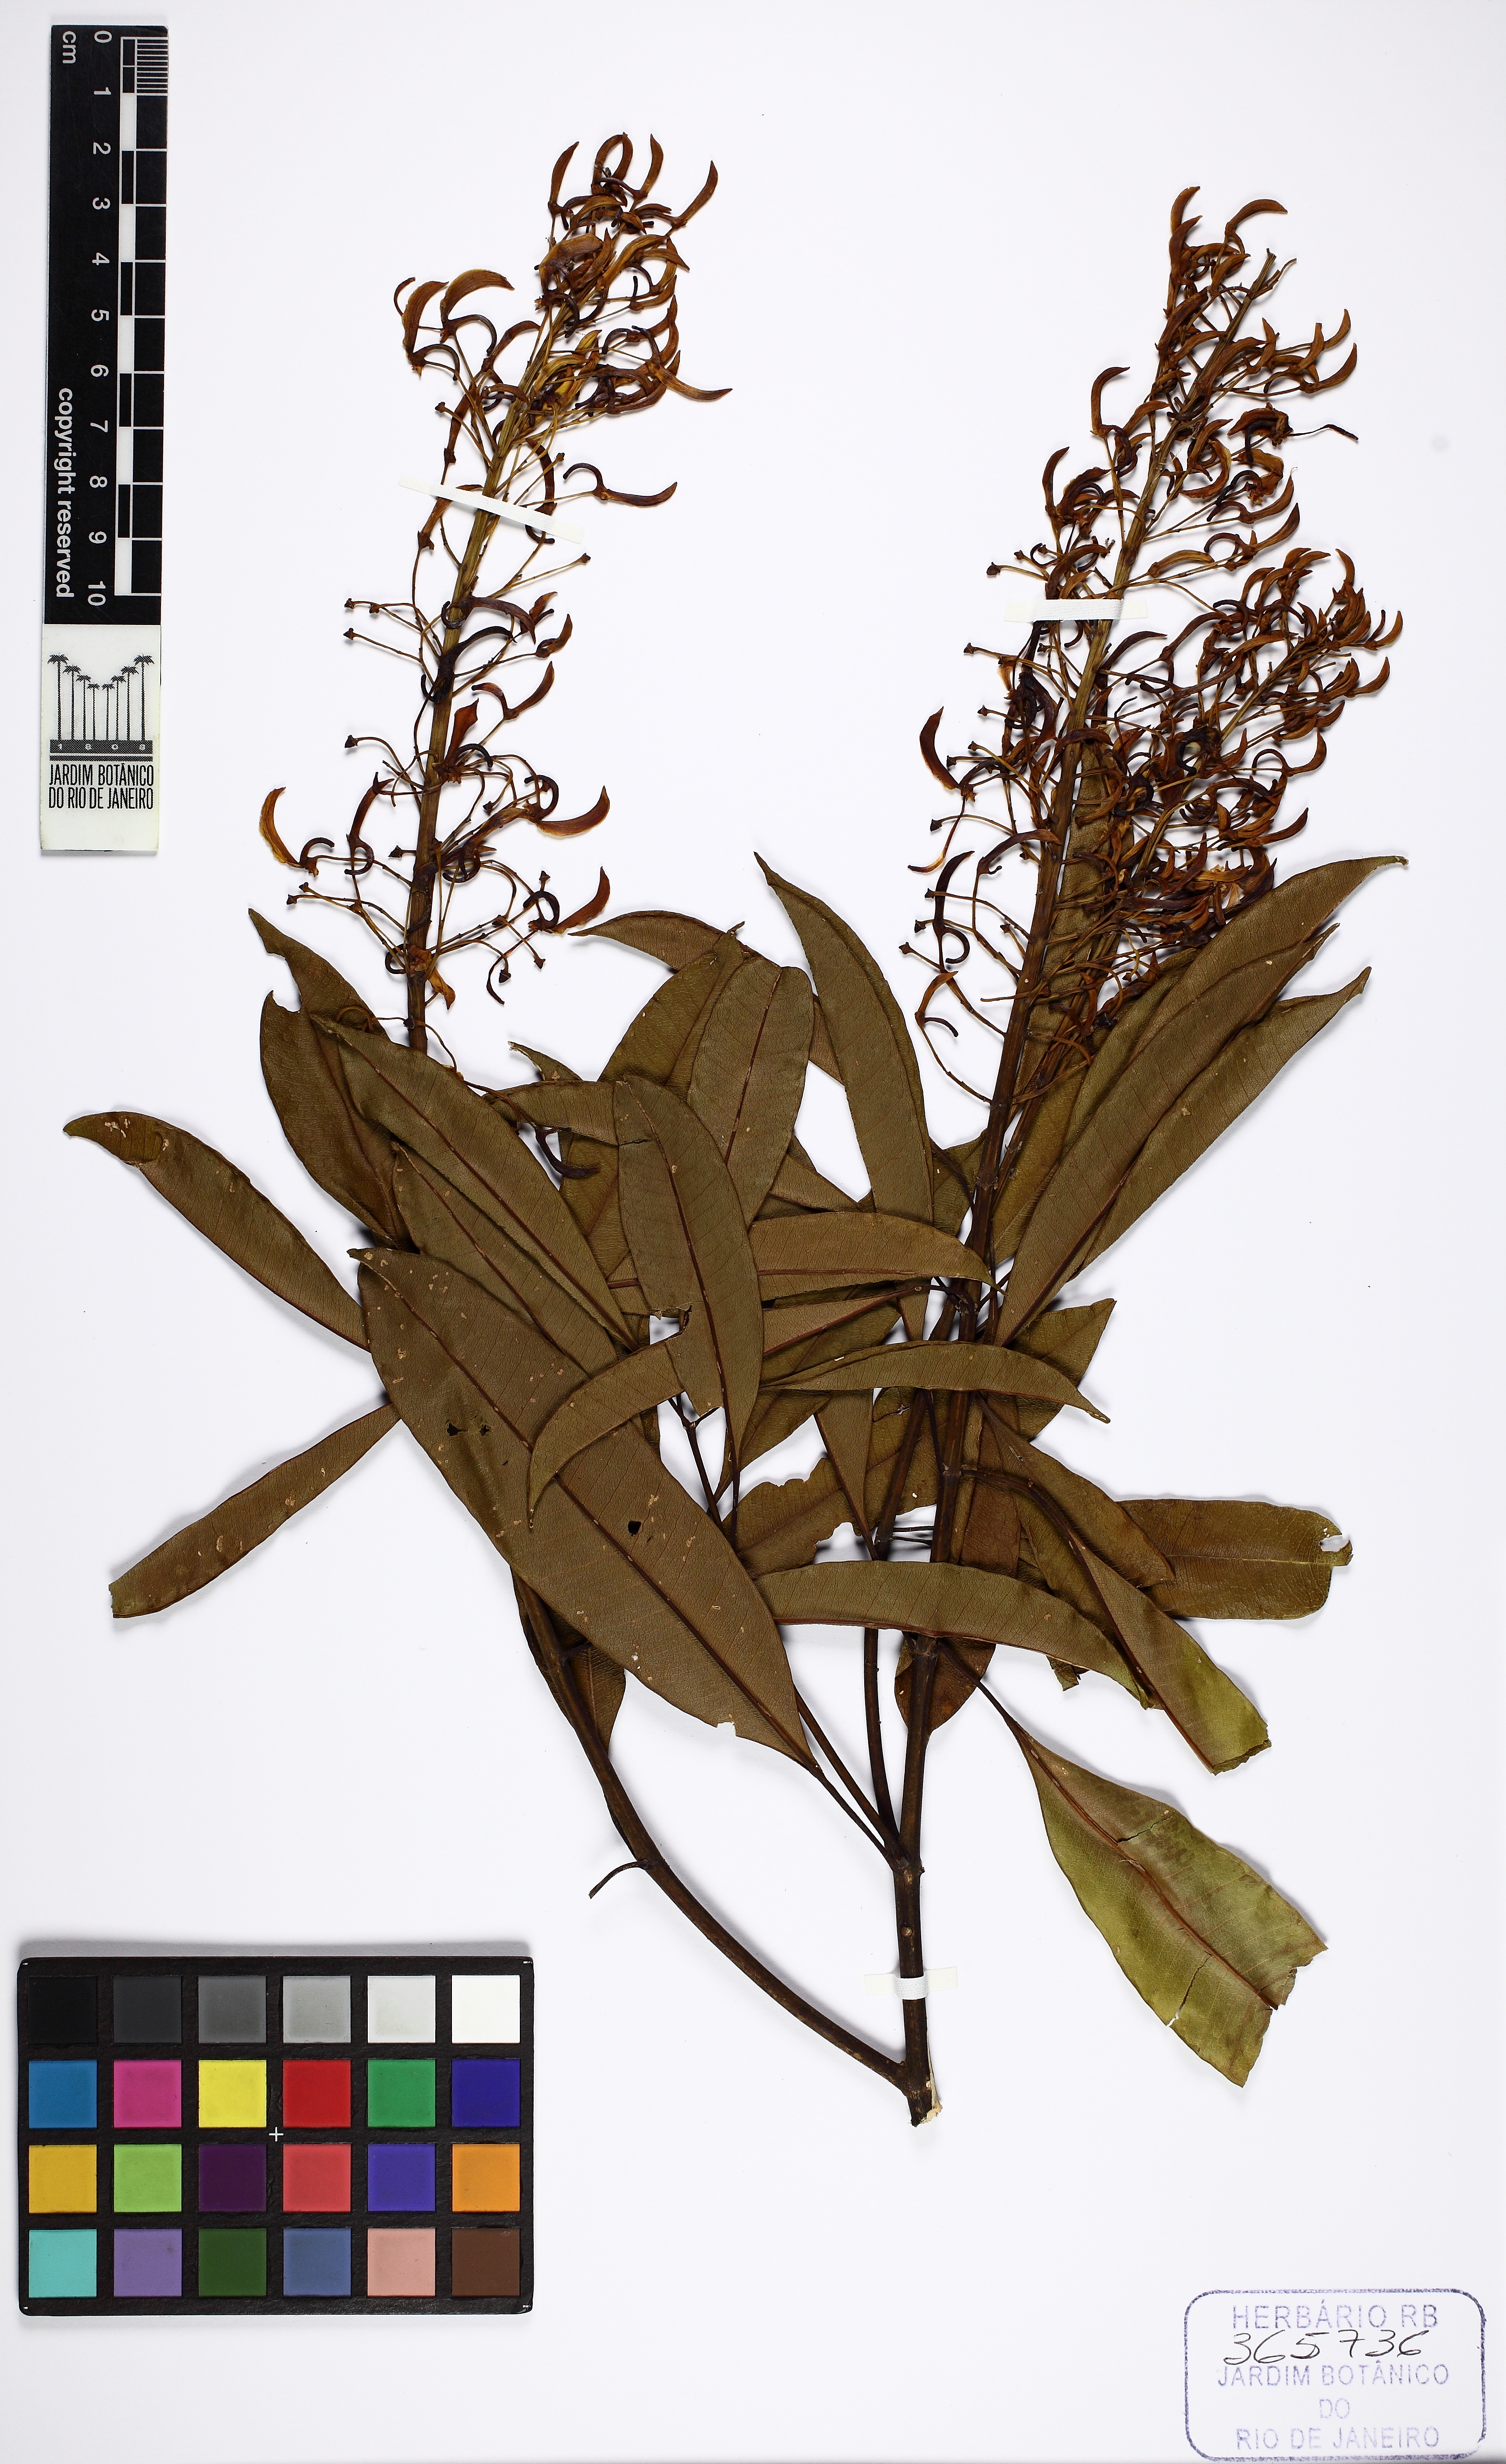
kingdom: Plantae
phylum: Tracheophyta
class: Magnoliopsida
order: Myrtales
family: Vochysiaceae
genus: Vochysia
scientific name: Vochysia bifalcata
